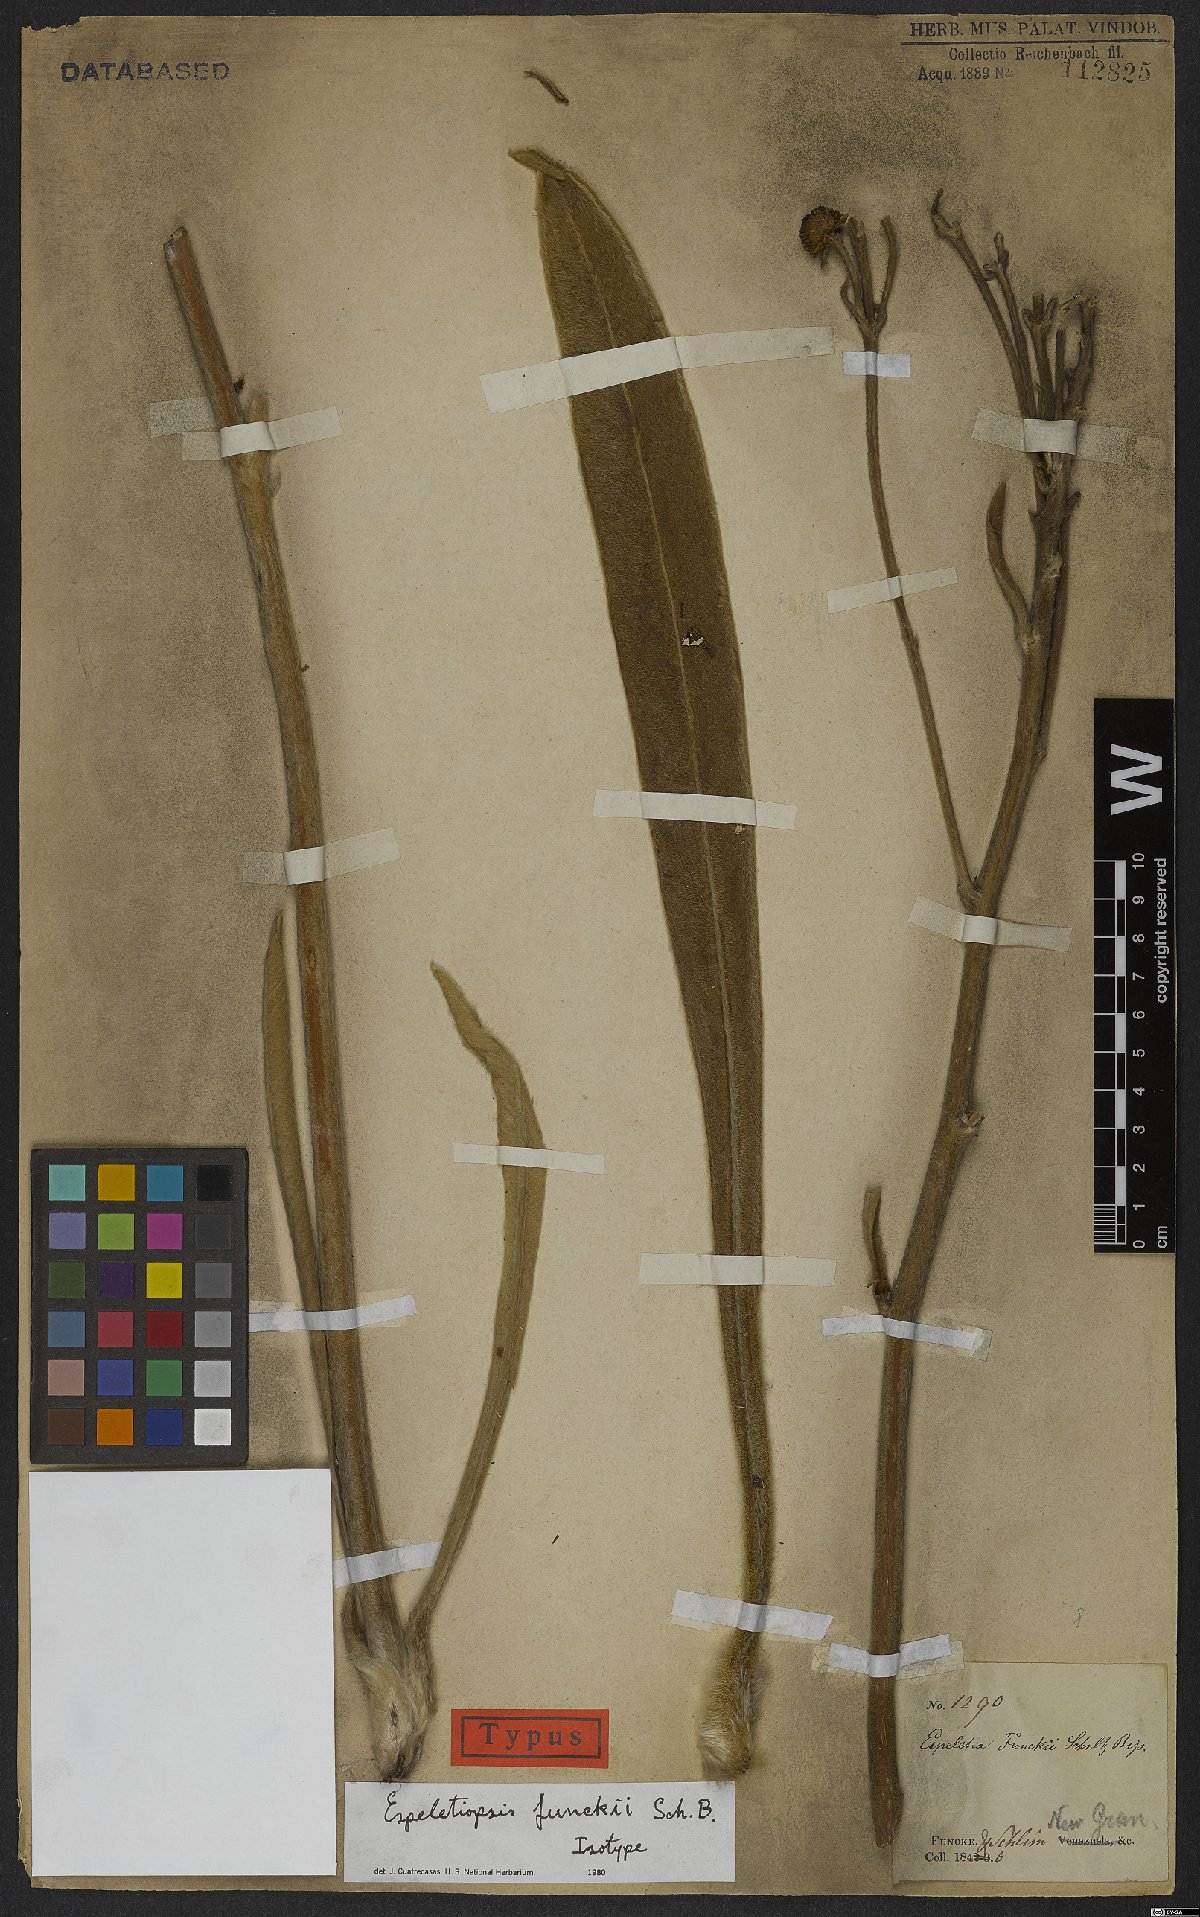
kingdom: Plantae
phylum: Tracheophyta
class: Magnoliopsida
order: Asterales
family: Asteraceae
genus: Espeletia
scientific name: Espeletia funckii
